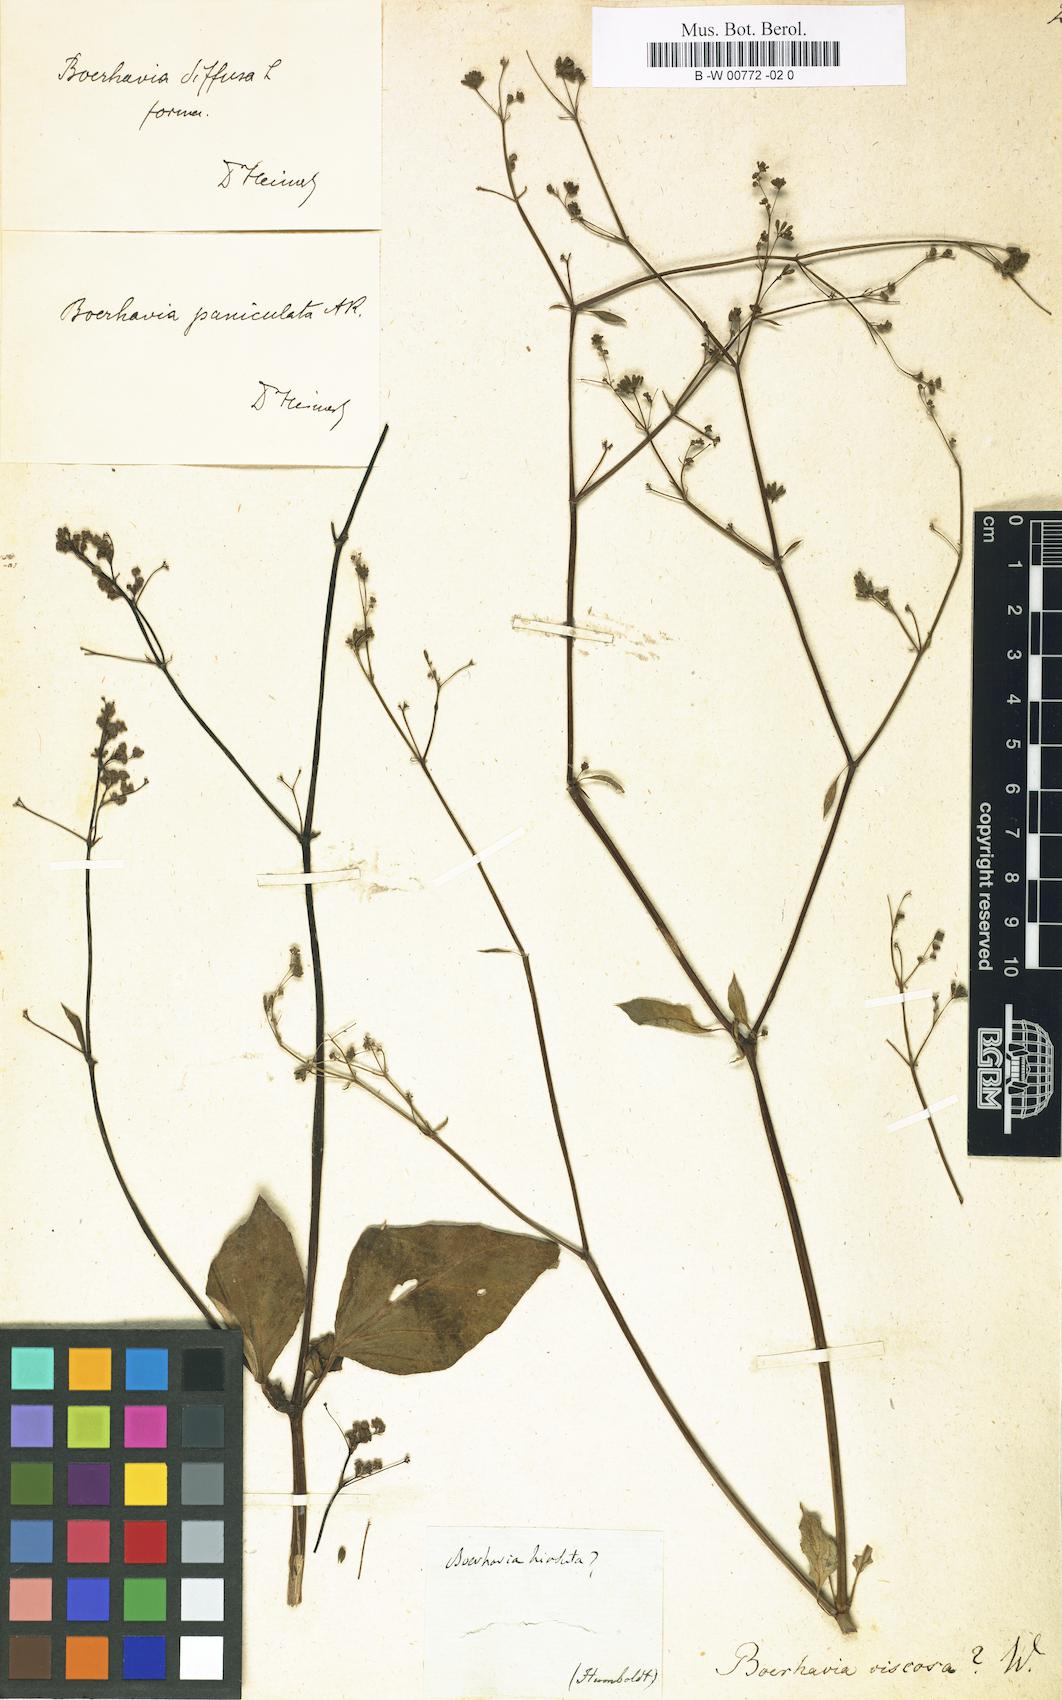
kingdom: Plantae
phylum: Tracheophyta
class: Magnoliopsida
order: Caryophyllales
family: Nyctaginaceae
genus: Boerhavia
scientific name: Boerhavia coccinea
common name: Scarlet spiderling
